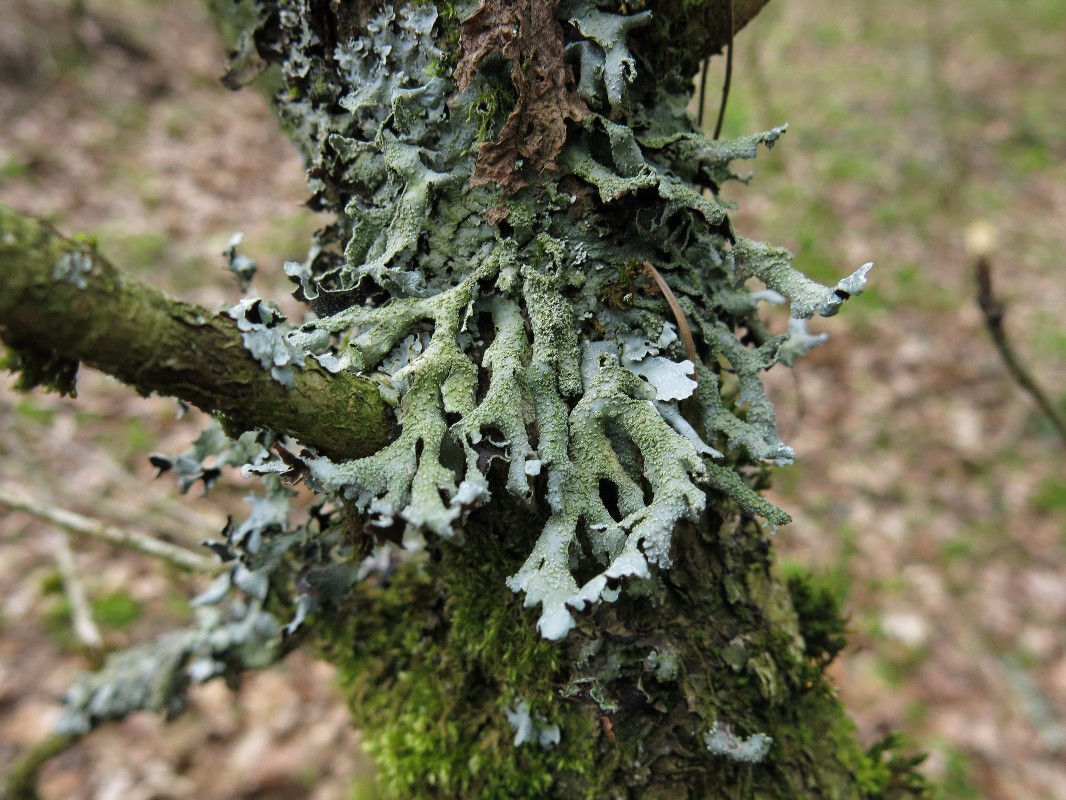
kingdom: Fungi
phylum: Ascomycota
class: Lecanoromycetes
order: Lecanorales
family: Parmeliaceae
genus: Parmelia
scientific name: Parmelia submontana
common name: langlobet skållav
